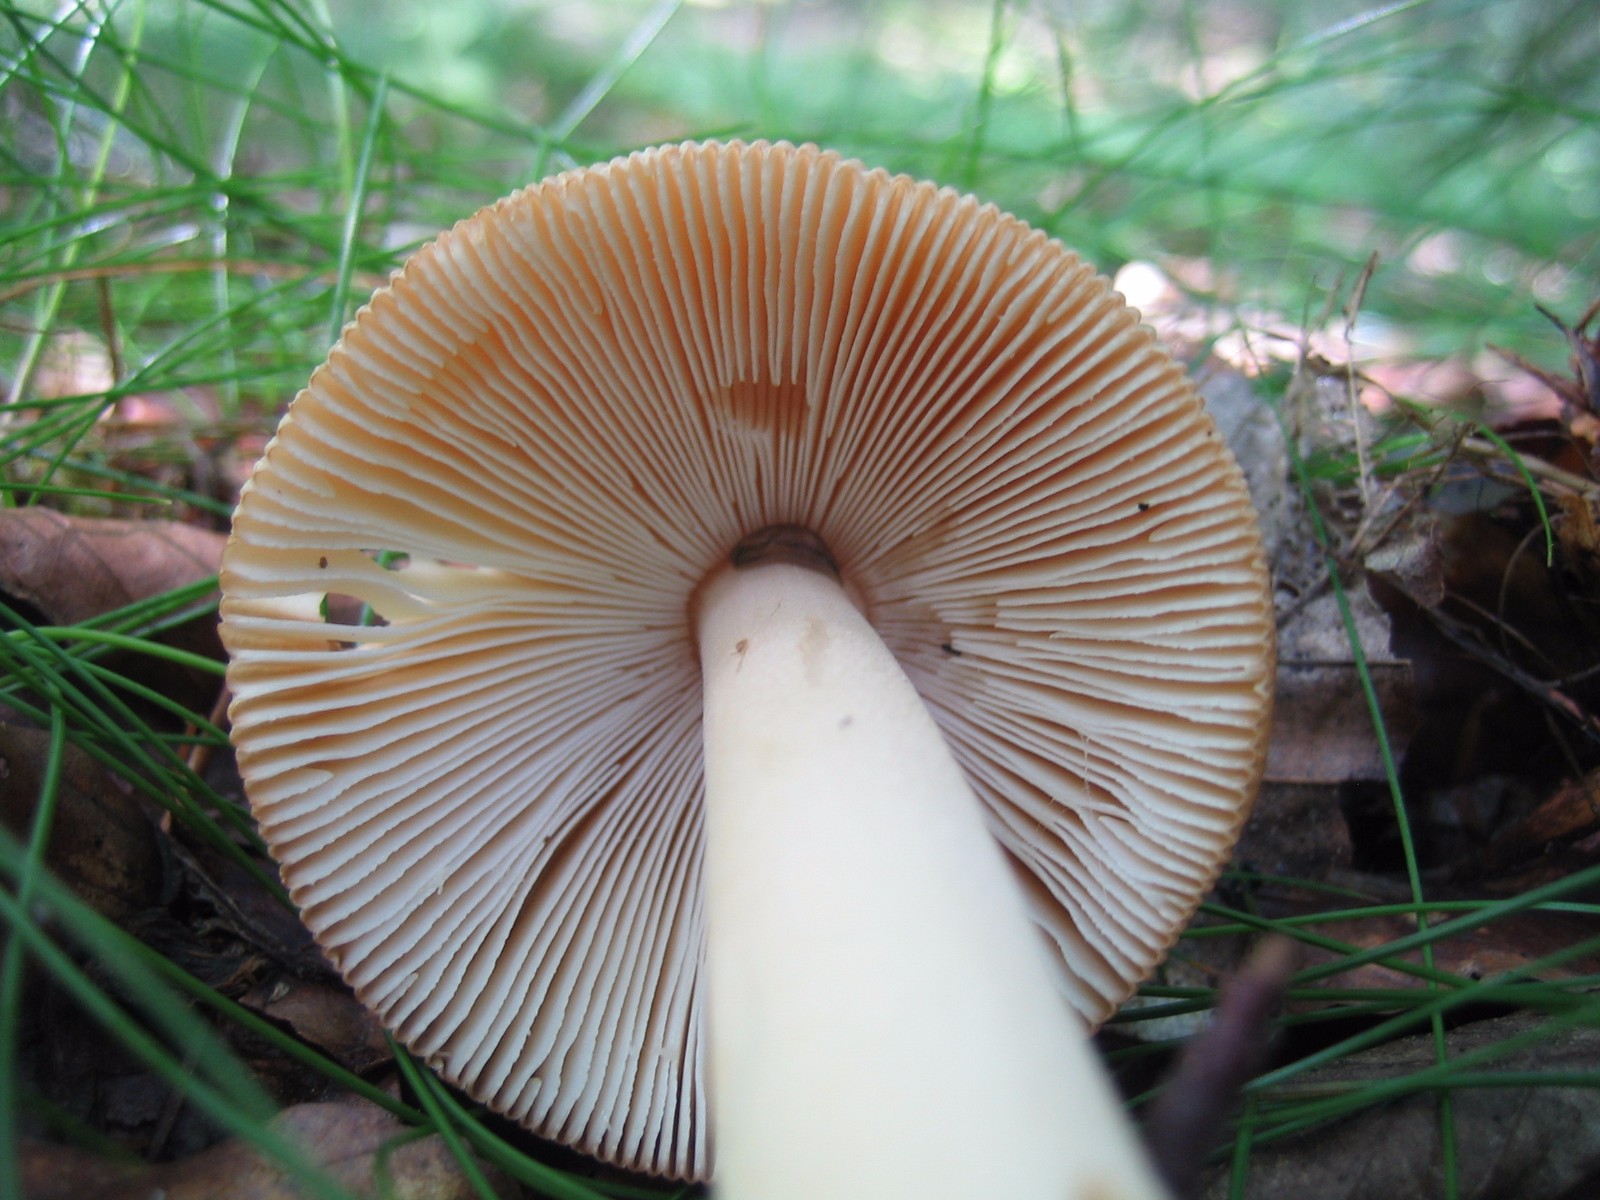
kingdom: Fungi
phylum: Basidiomycota
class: Agaricomycetes
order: Agaricales
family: Amanitaceae
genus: Amanita
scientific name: Amanita fulva
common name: brun kam-fluesvamp
